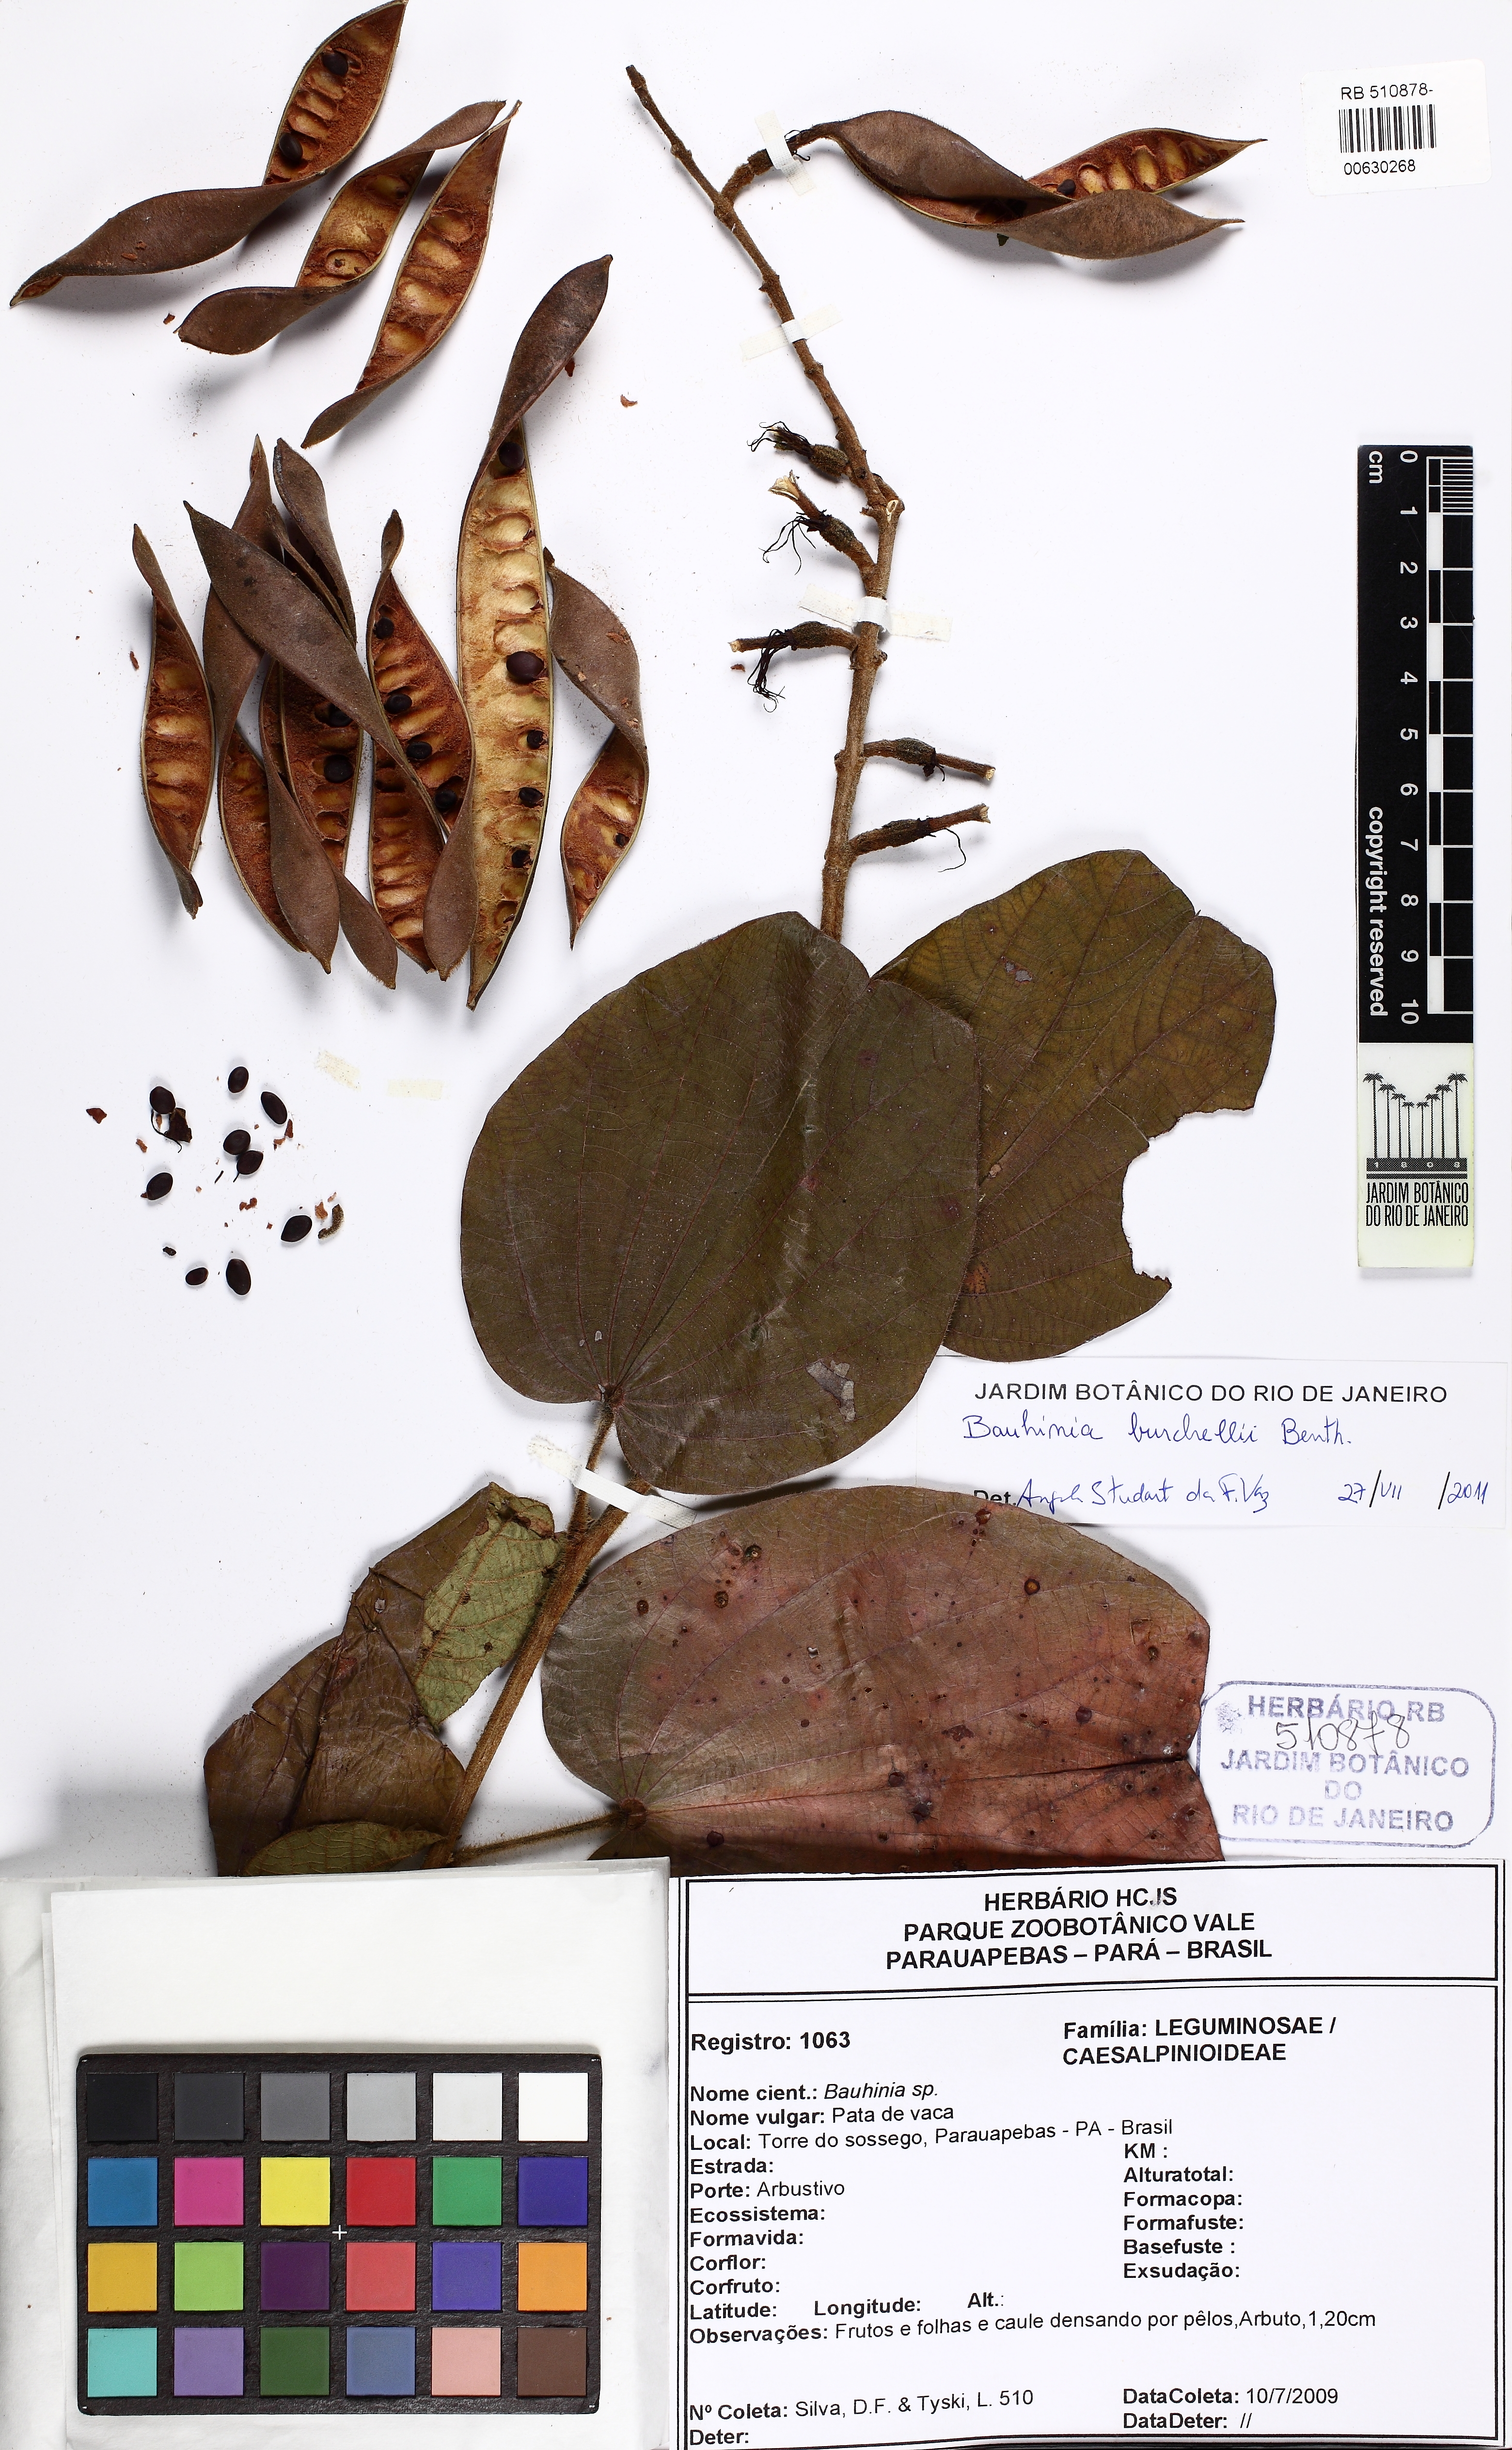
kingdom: Plantae
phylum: Tracheophyta
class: Magnoliopsida
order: Fabales
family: Fabaceae
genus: Bauhinia
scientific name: Bauhinia burchellii
